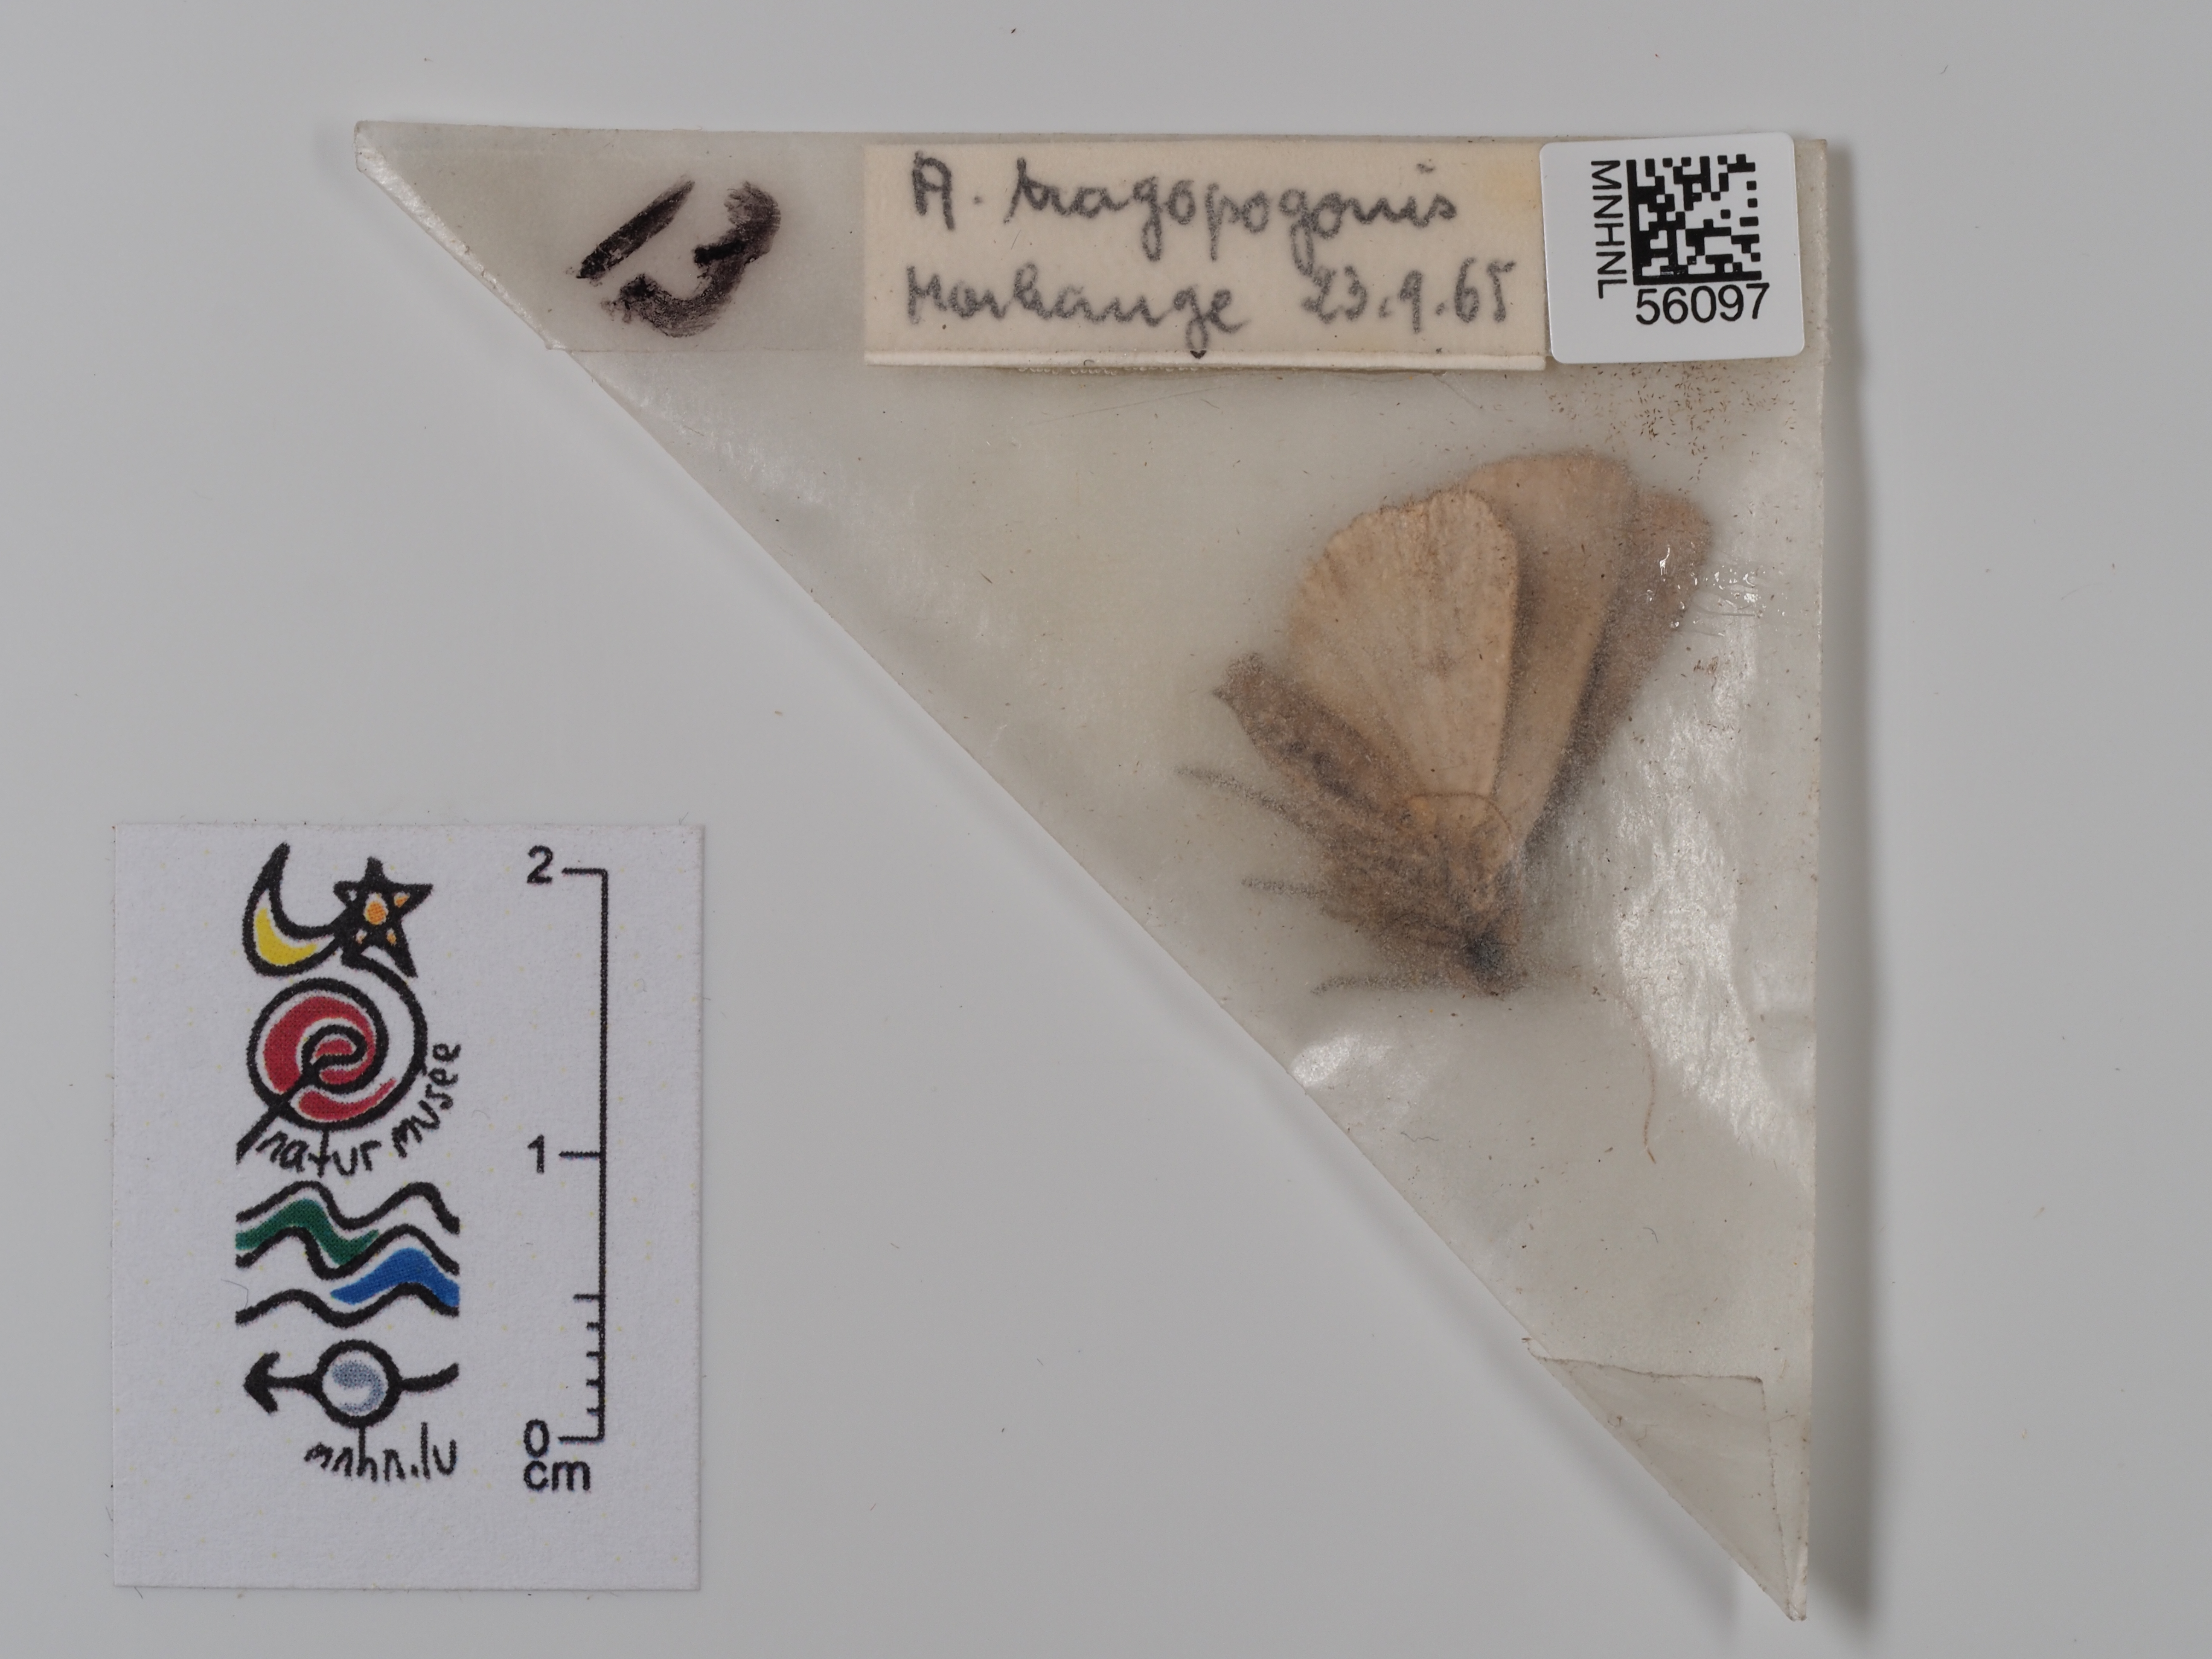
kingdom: Animalia
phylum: Arthropoda
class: Insecta
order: Lepidoptera
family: Noctuidae
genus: Amphipyra
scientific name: Amphipyra tragopoginis
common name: Mouse moth
